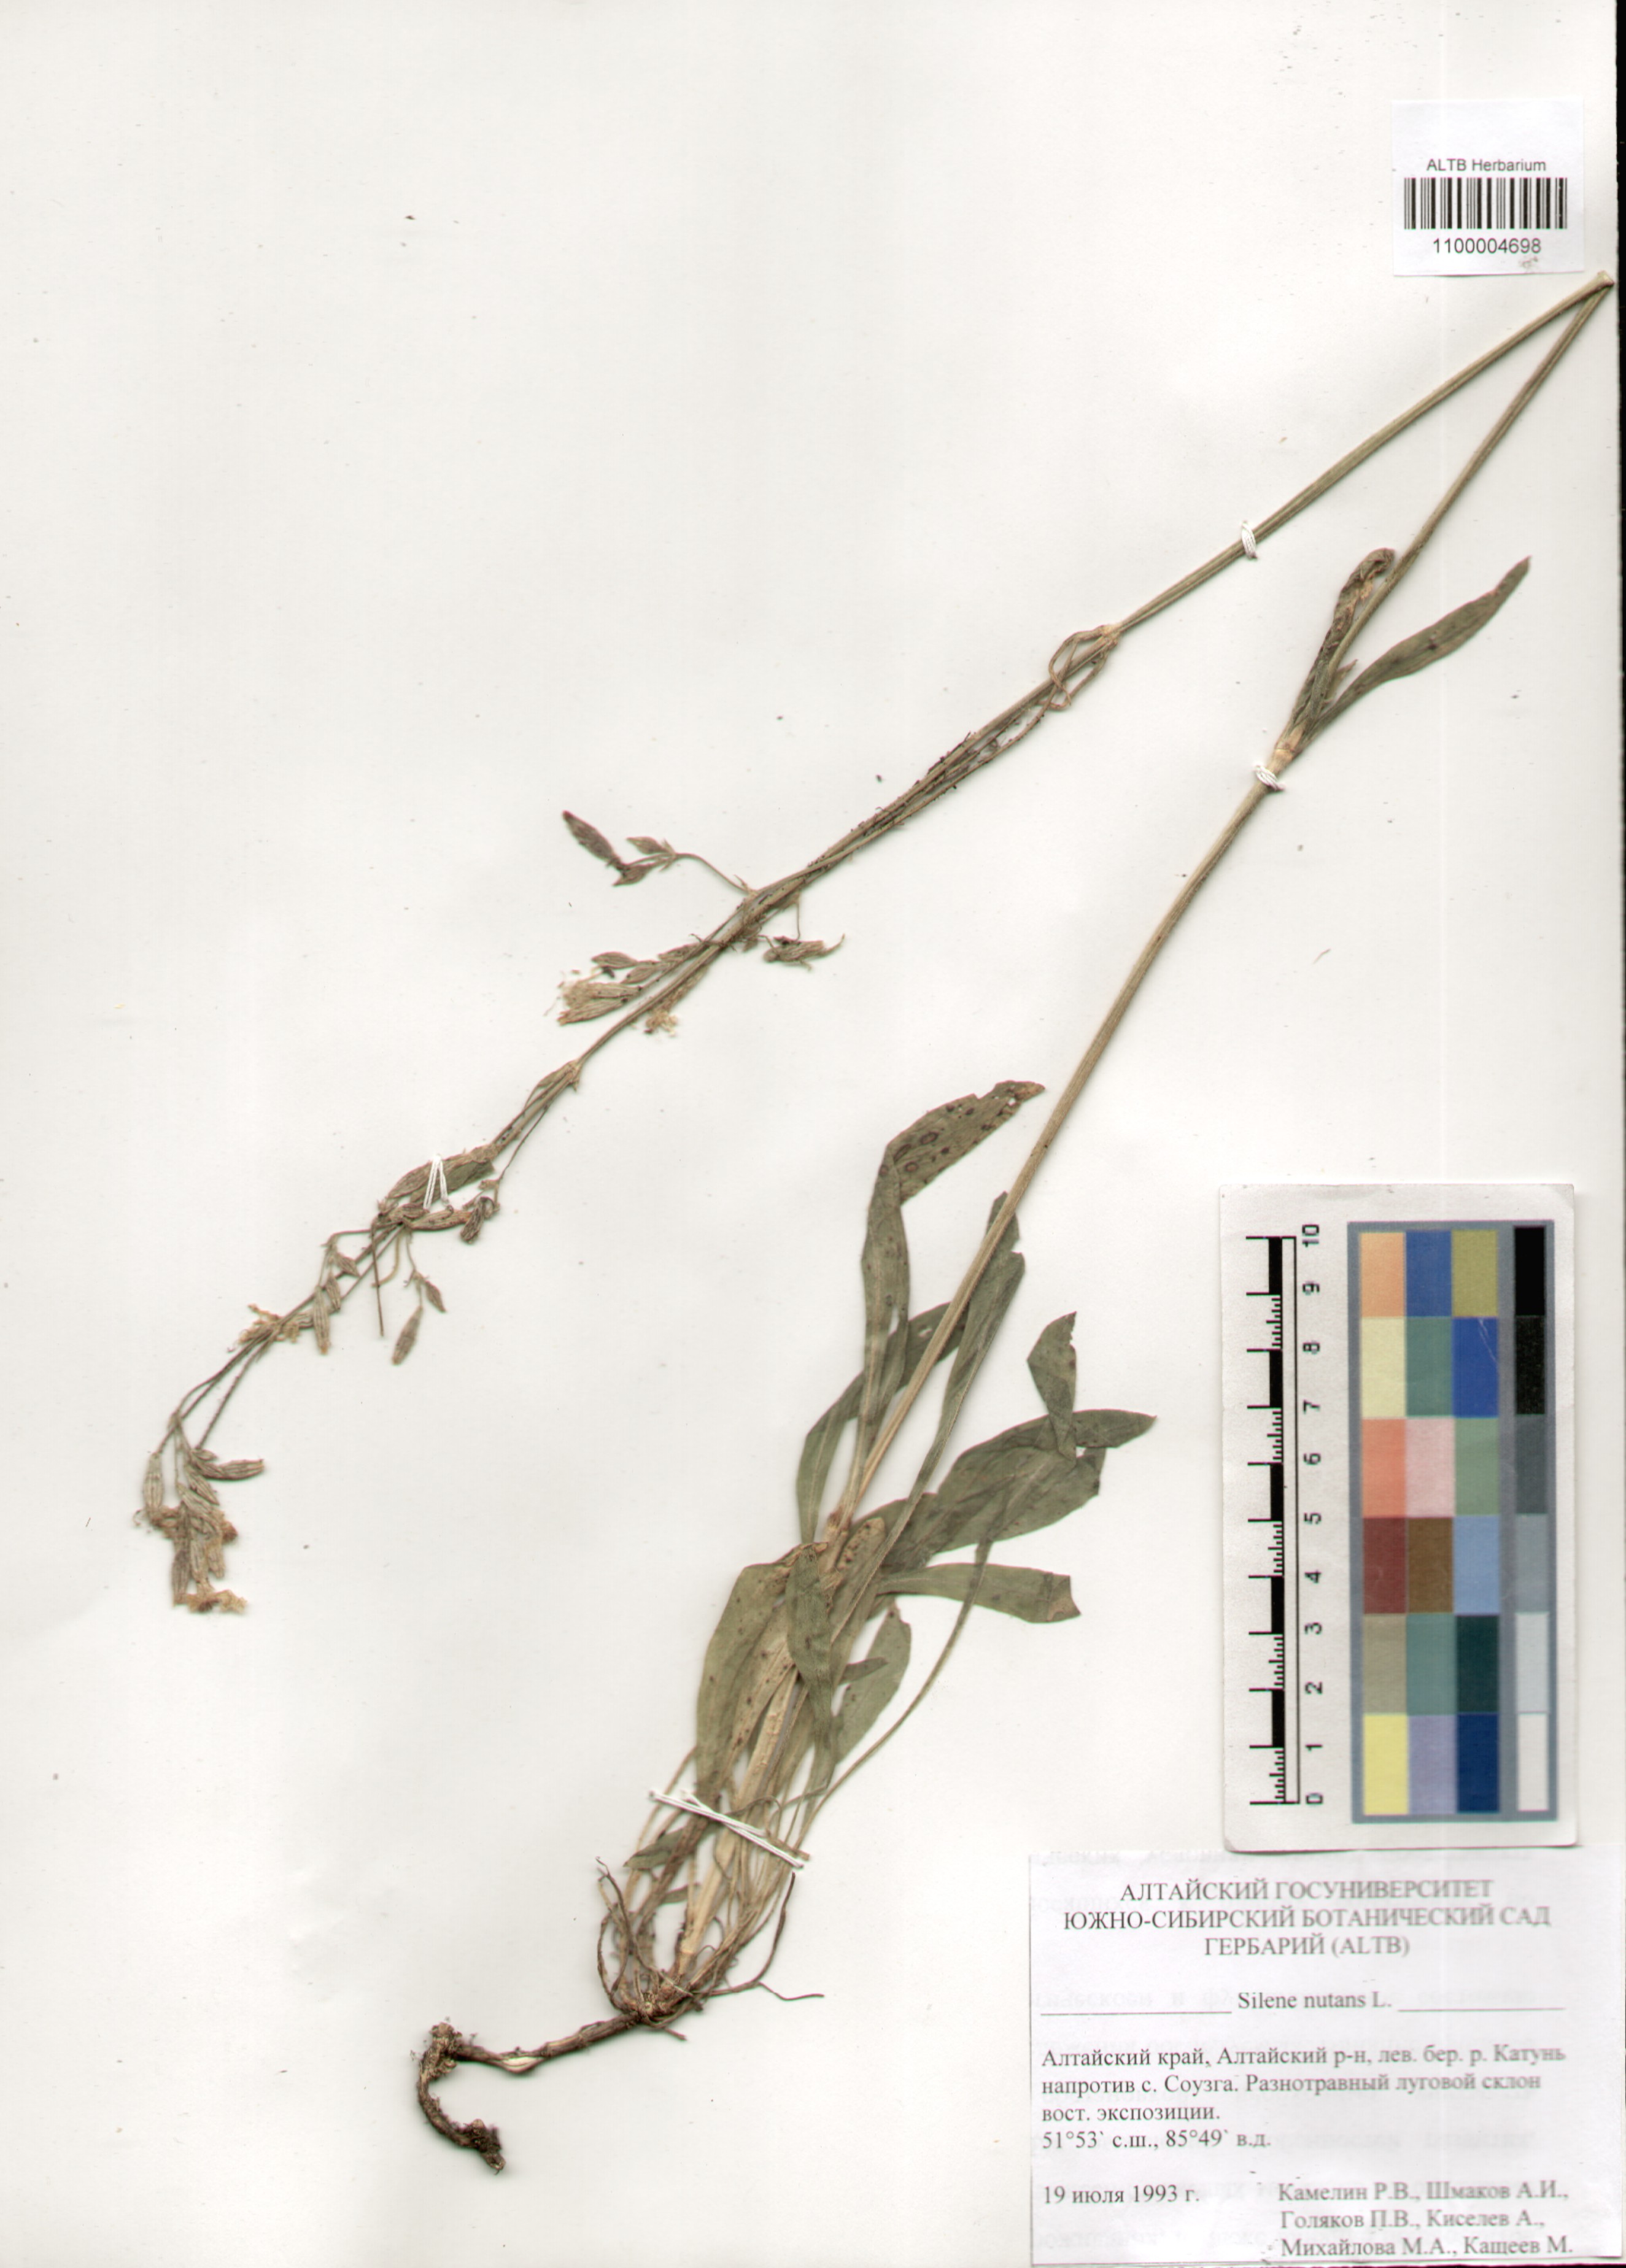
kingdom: Plantae
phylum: Tracheophyta
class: Magnoliopsida
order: Caryophyllales
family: Caryophyllaceae
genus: Silene
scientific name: Silene nutans
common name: Nottingham catchfly
